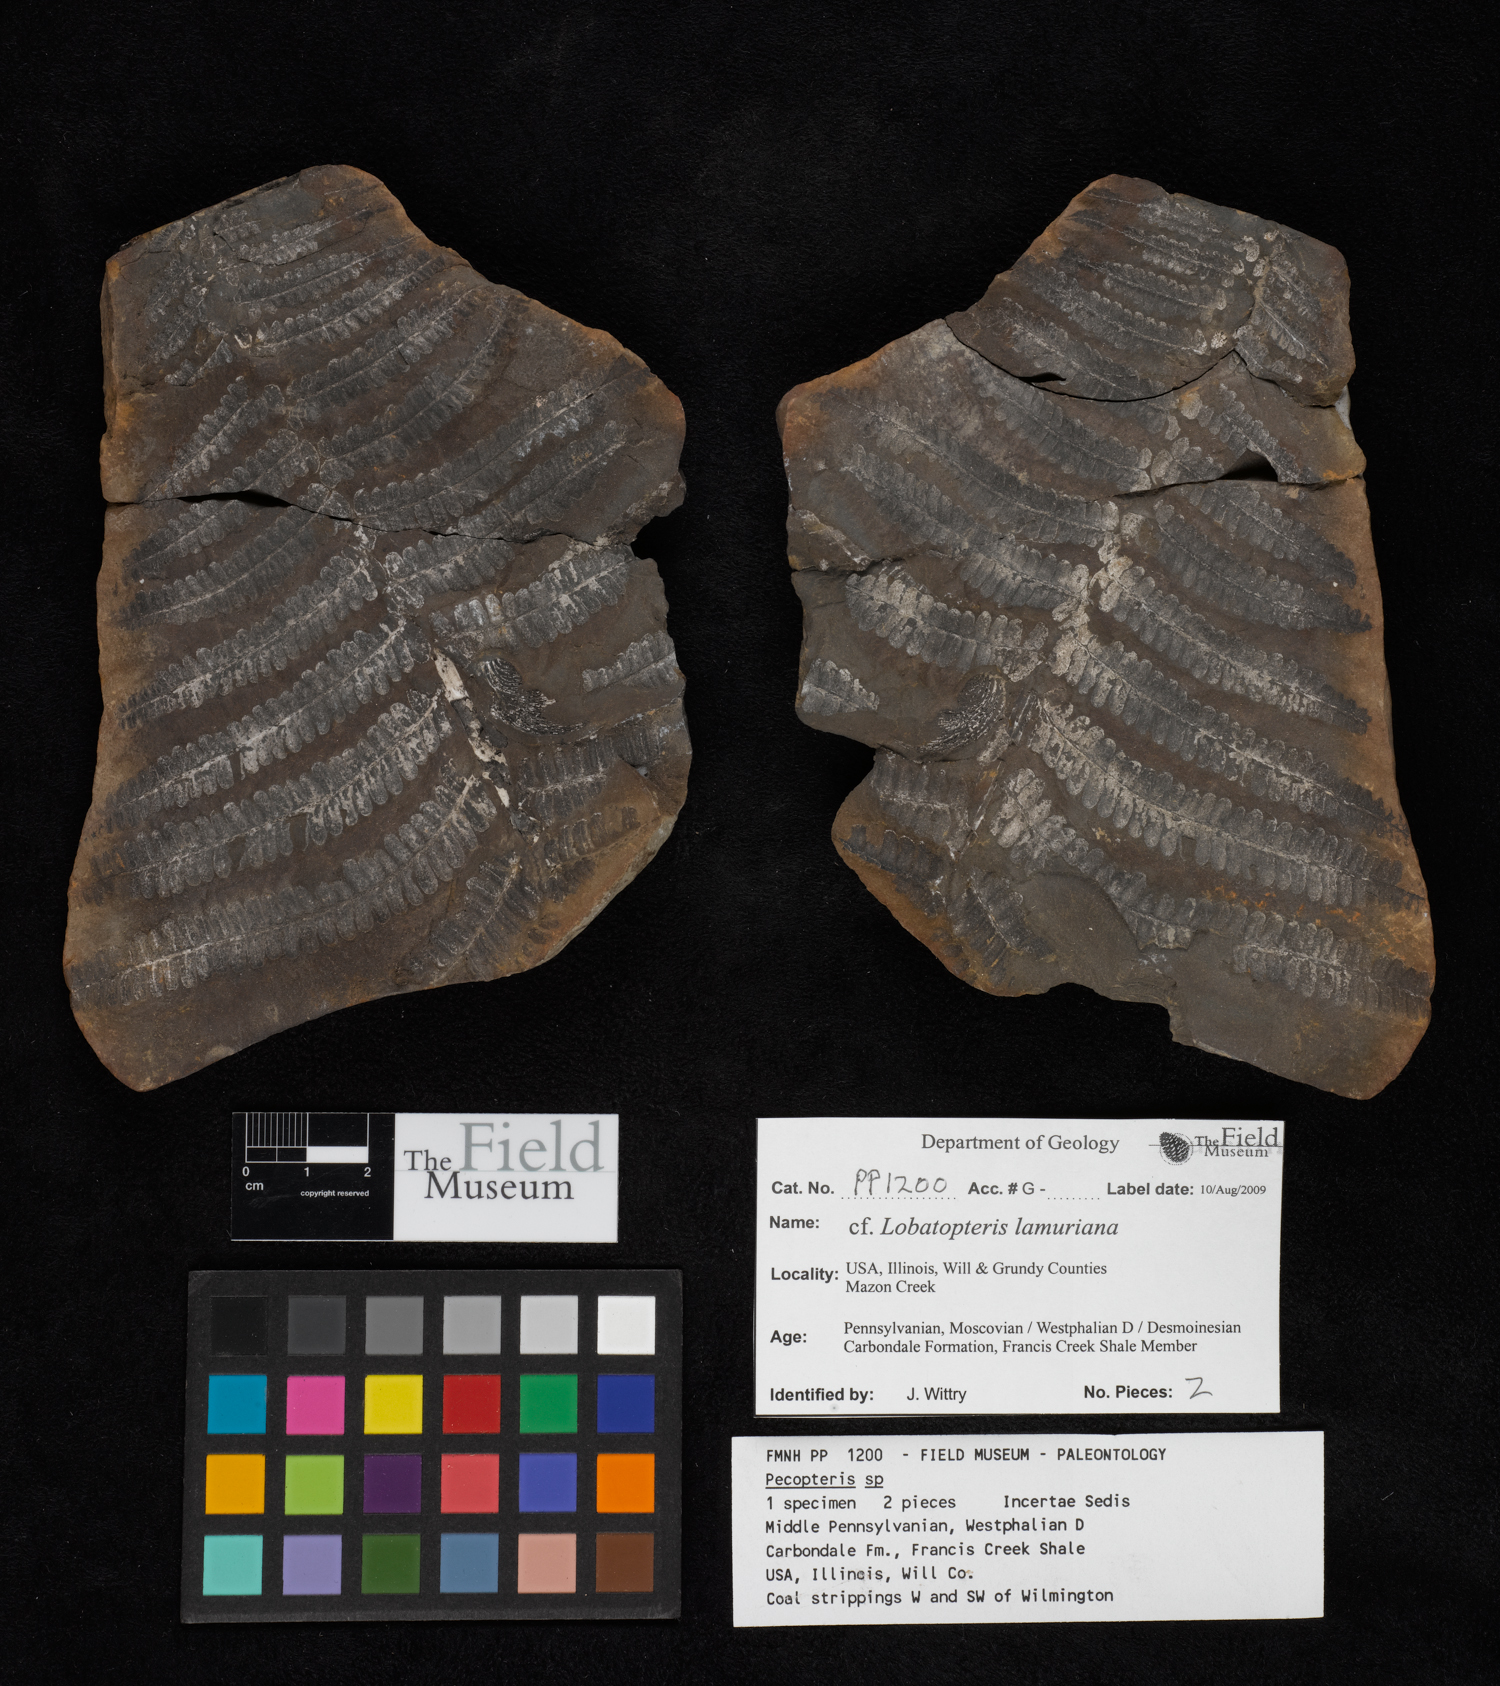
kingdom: Plantae
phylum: Tracheophyta
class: Polypodiopsida
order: Marattiales
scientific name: Marattiales
